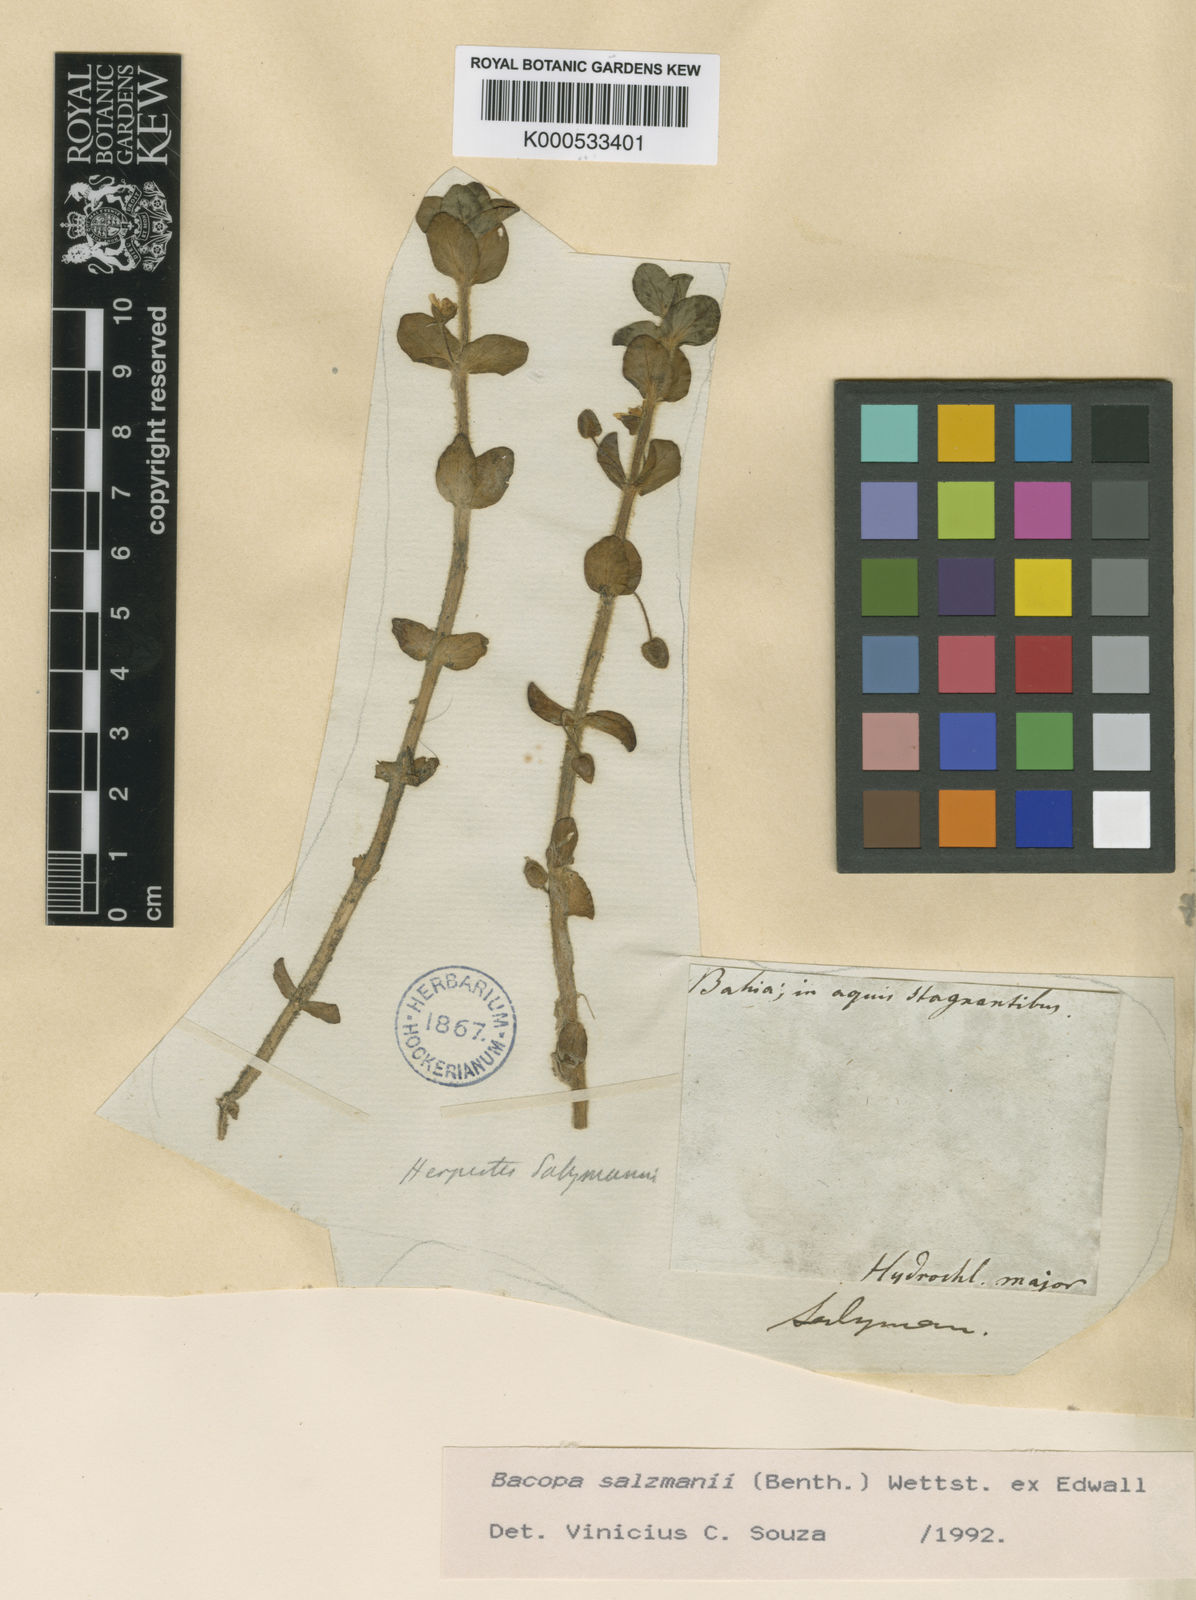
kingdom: Plantae
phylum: Tracheophyta
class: Magnoliopsida
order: Lamiales
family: Plantaginaceae
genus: Bacopa
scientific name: Bacopa salzmannii
